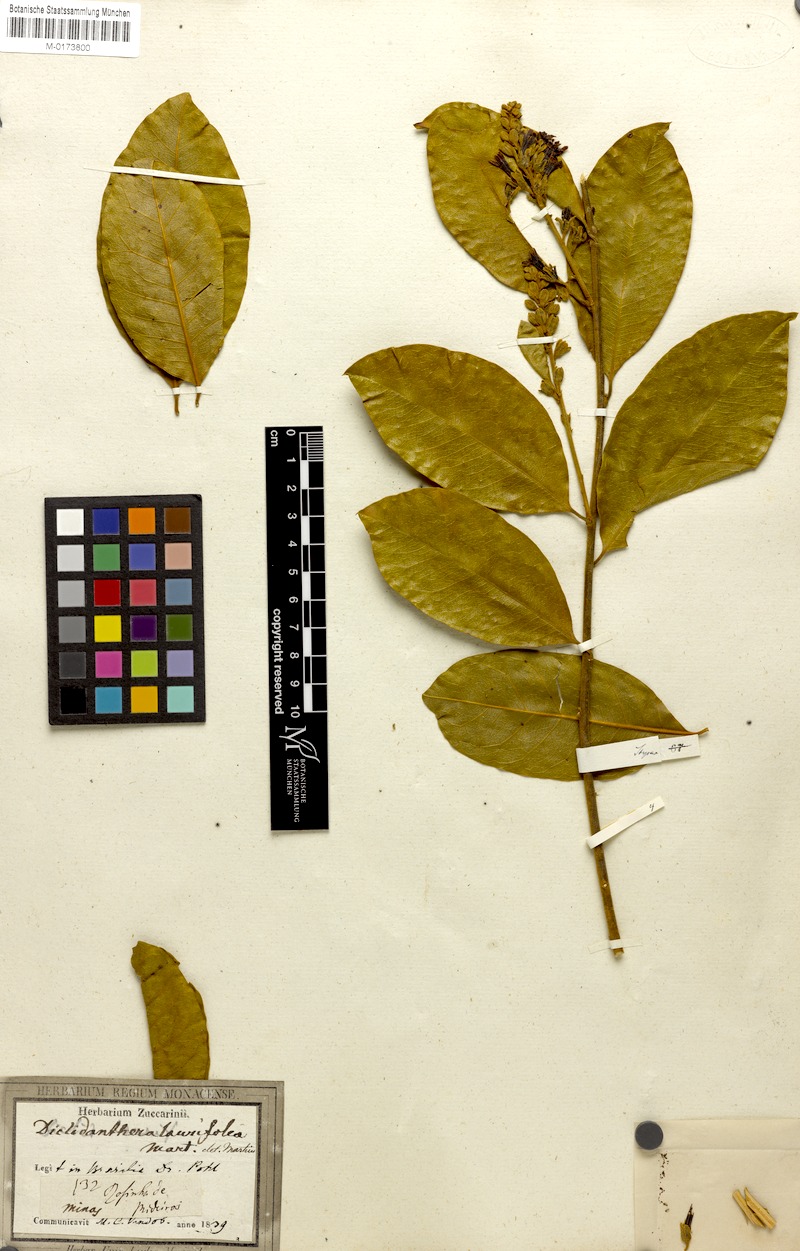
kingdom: Plantae
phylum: Tracheophyta
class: Magnoliopsida
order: Fabales
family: Polygalaceae
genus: Diclidanthera
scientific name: Diclidanthera laurifolia
